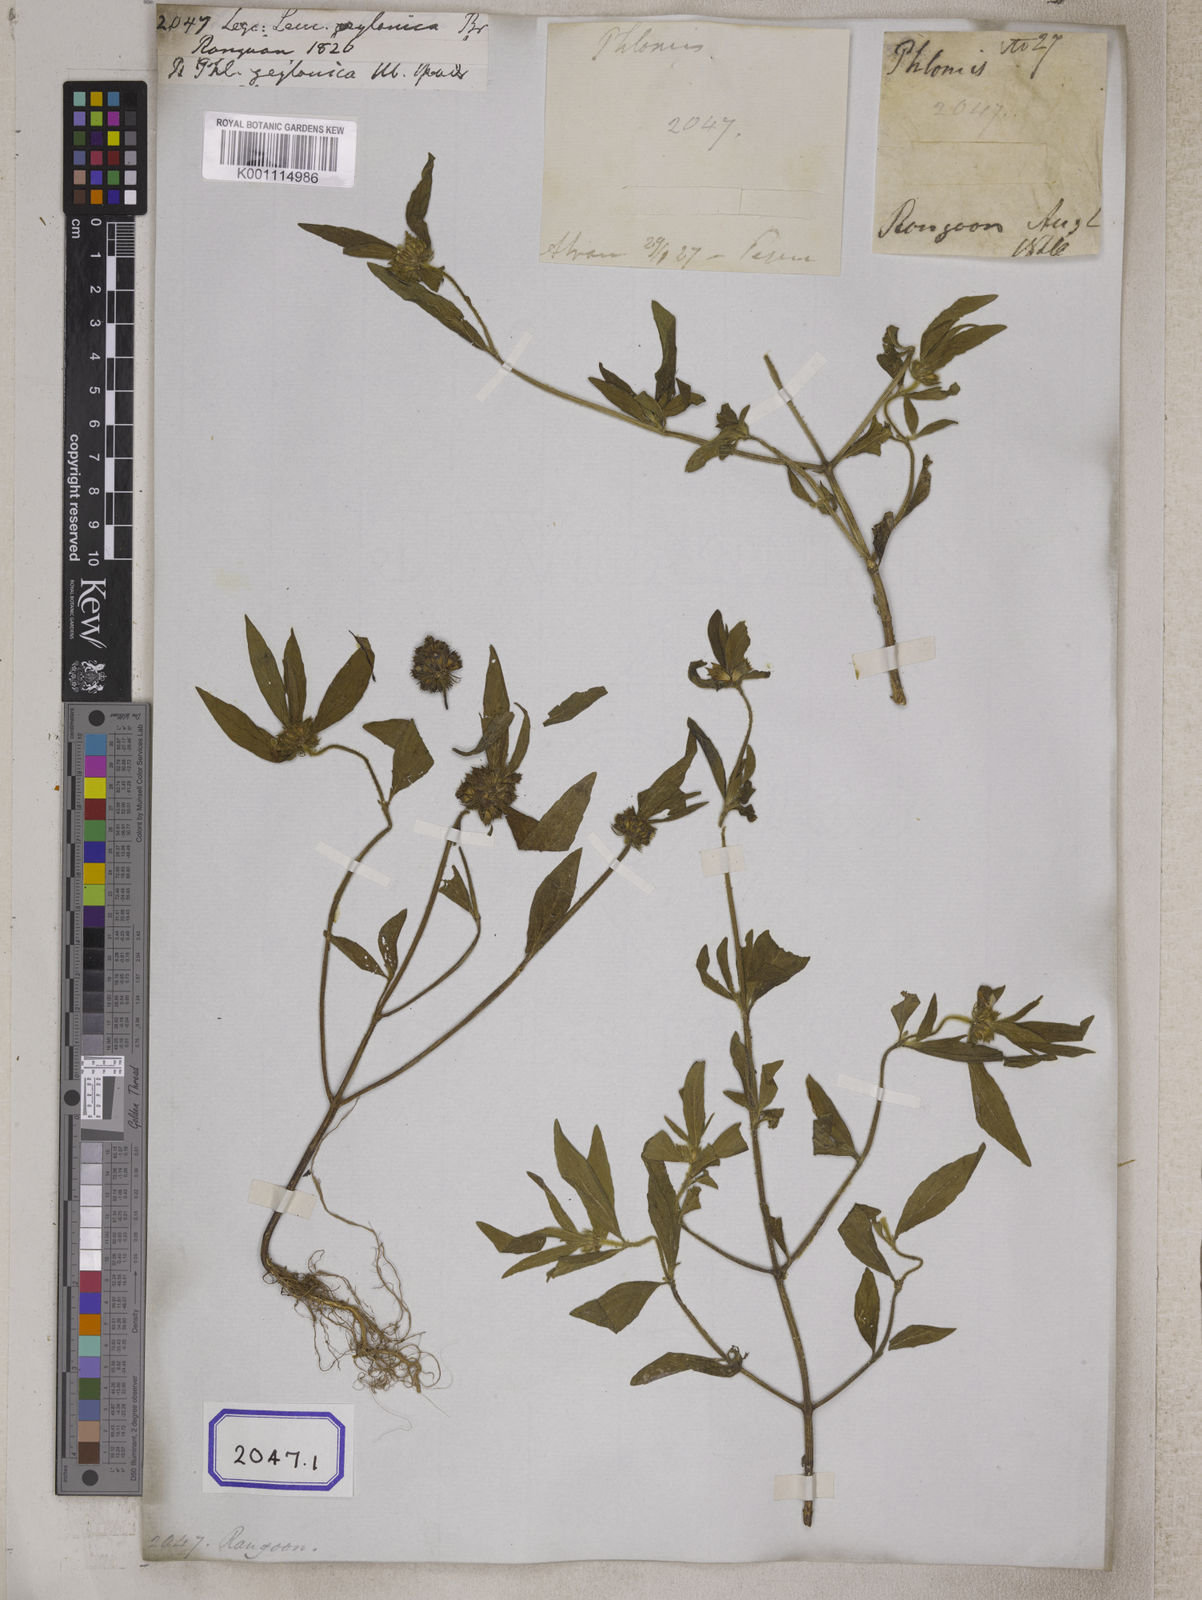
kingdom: Plantae
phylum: Tracheophyta
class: Magnoliopsida
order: Lamiales
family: Lamiaceae
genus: Leucas
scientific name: Leucas
